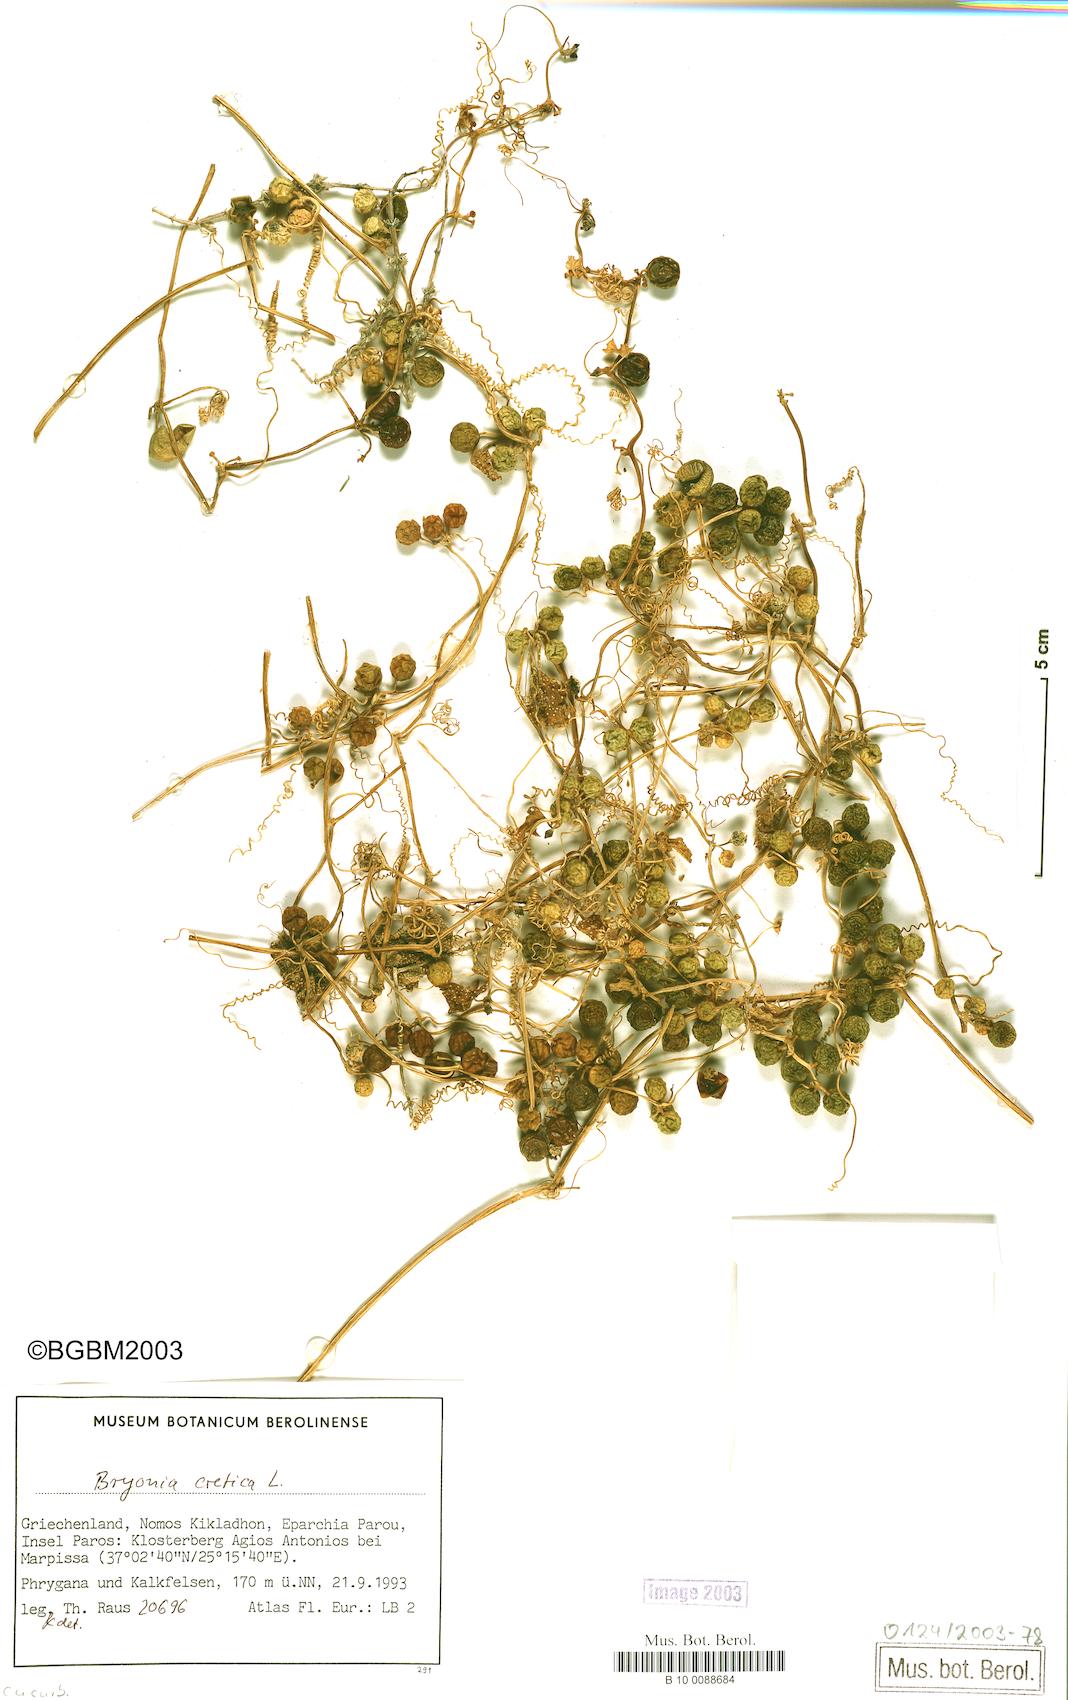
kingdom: Plantae
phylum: Tracheophyta
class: Magnoliopsida
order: Cucurbitales
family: Cucurbitaceae
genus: Bryonia
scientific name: Bryonia cretica
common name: Cretan bryony
